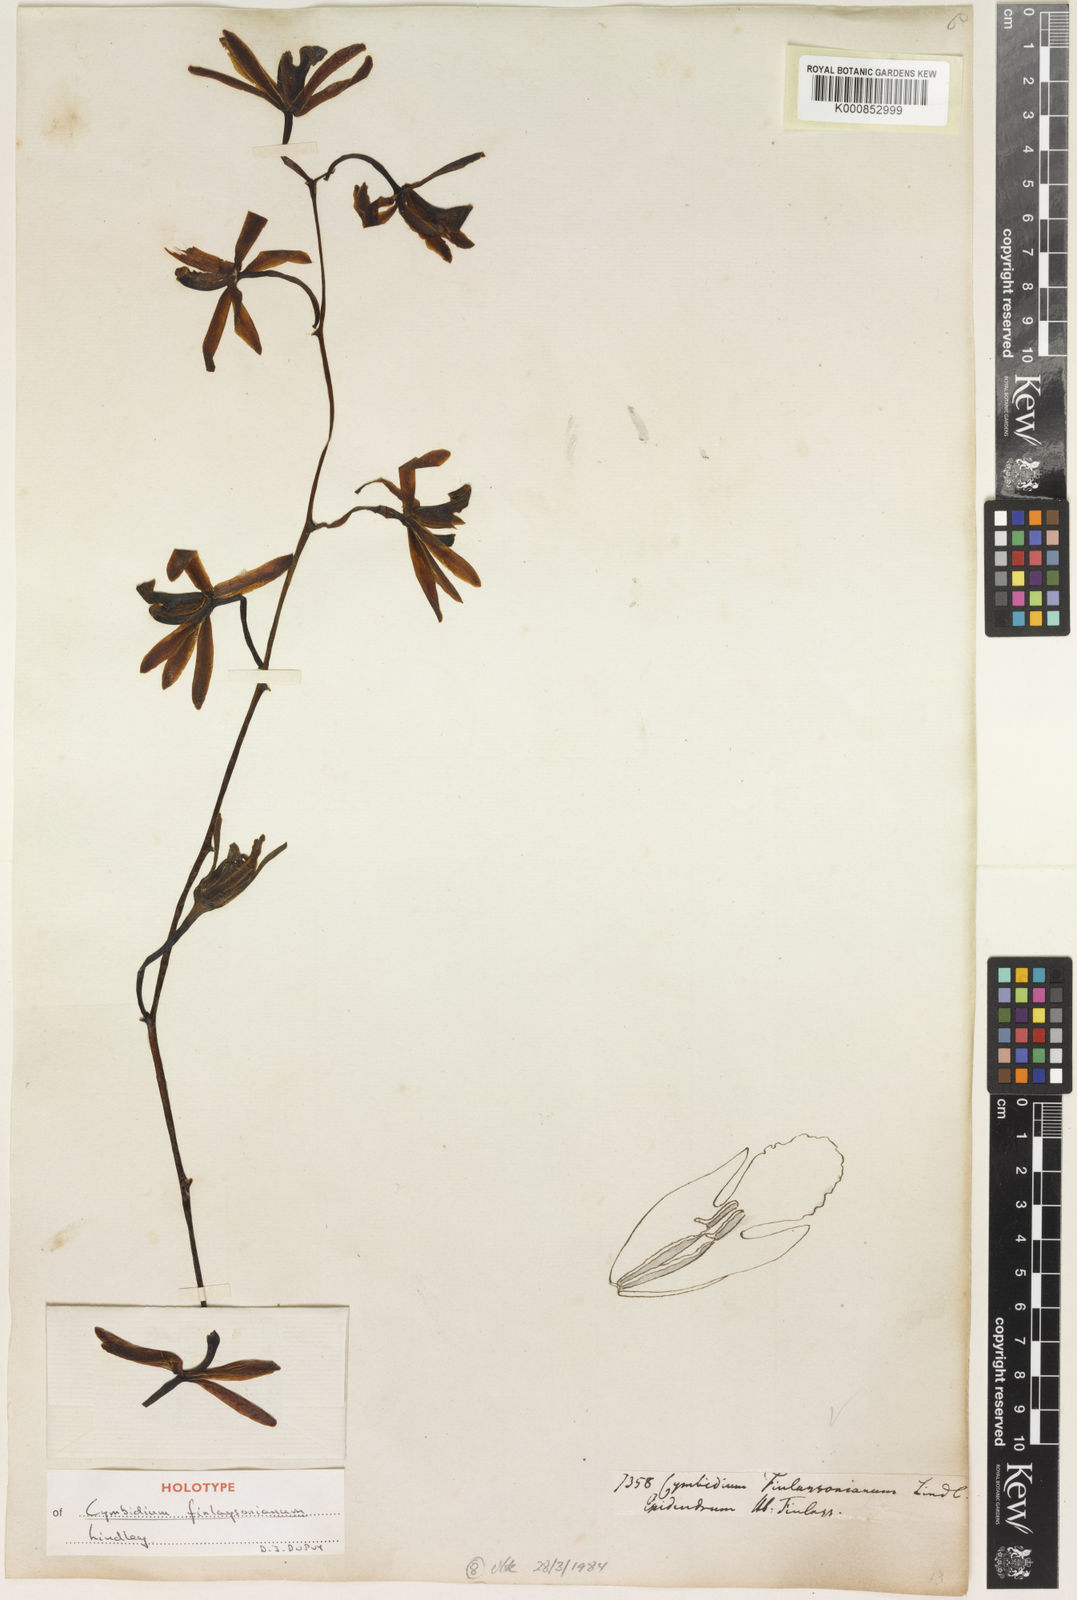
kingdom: Plantae
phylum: Tracheophyta
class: Liliopsida
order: Asparagales
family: Orchidaceae
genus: Cymbidium
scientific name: Cymbidium finlaysonianum
